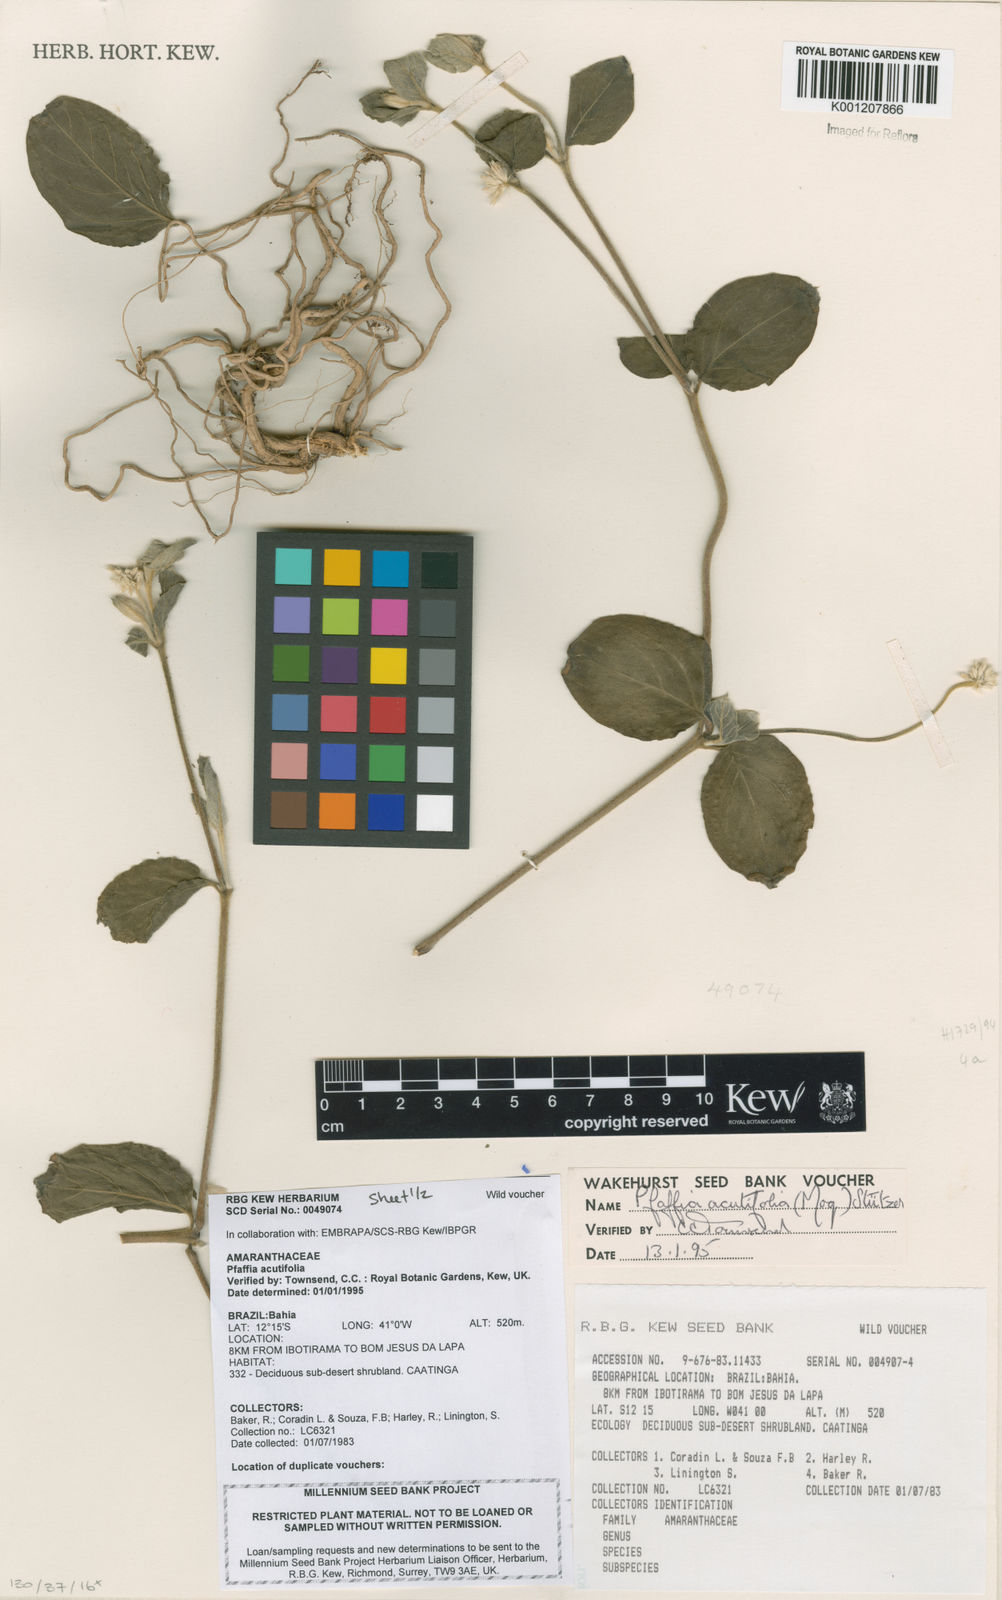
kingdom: Plantae
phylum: Tracheophyta
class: Magnoliopsida
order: Caryophyllales
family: Amaranthaceae
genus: Pfaffia
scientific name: Pfaffia
